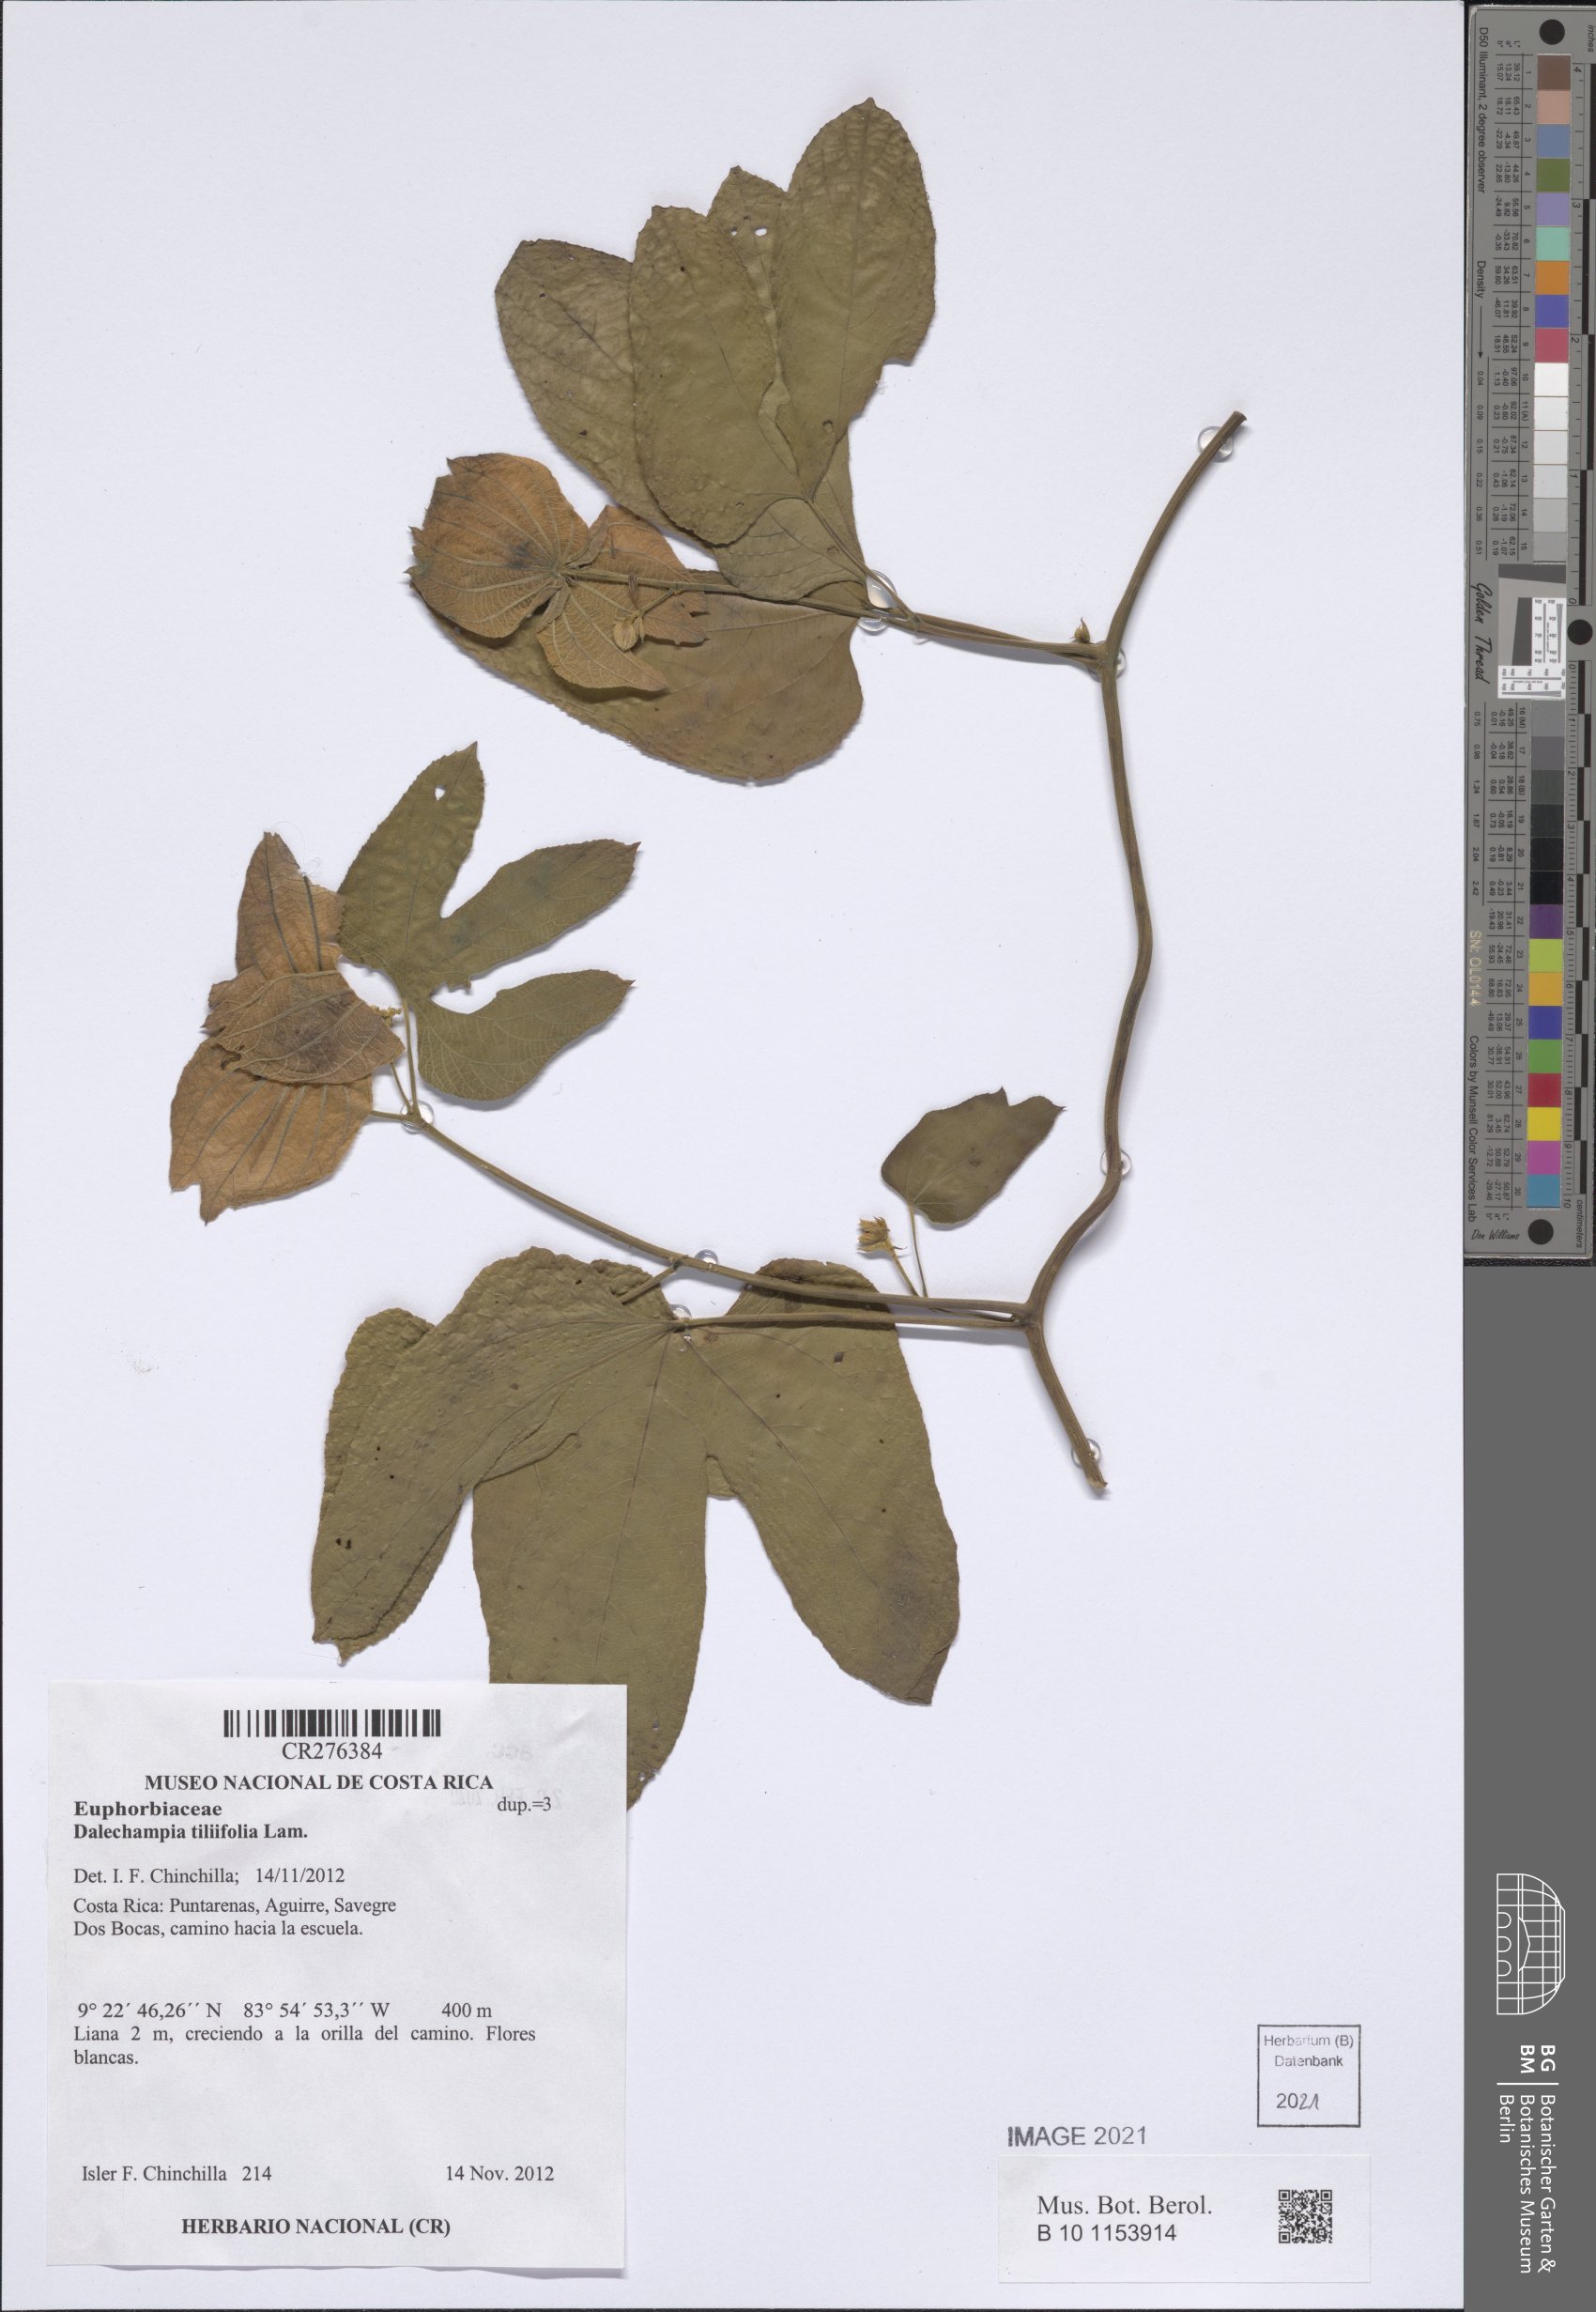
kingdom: Plantae
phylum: Tracheophyta
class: Magnoliopsida
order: Malpighiales
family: Euphorbiaceae
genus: Dalechampia
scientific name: Dalechampia tiliifolia
